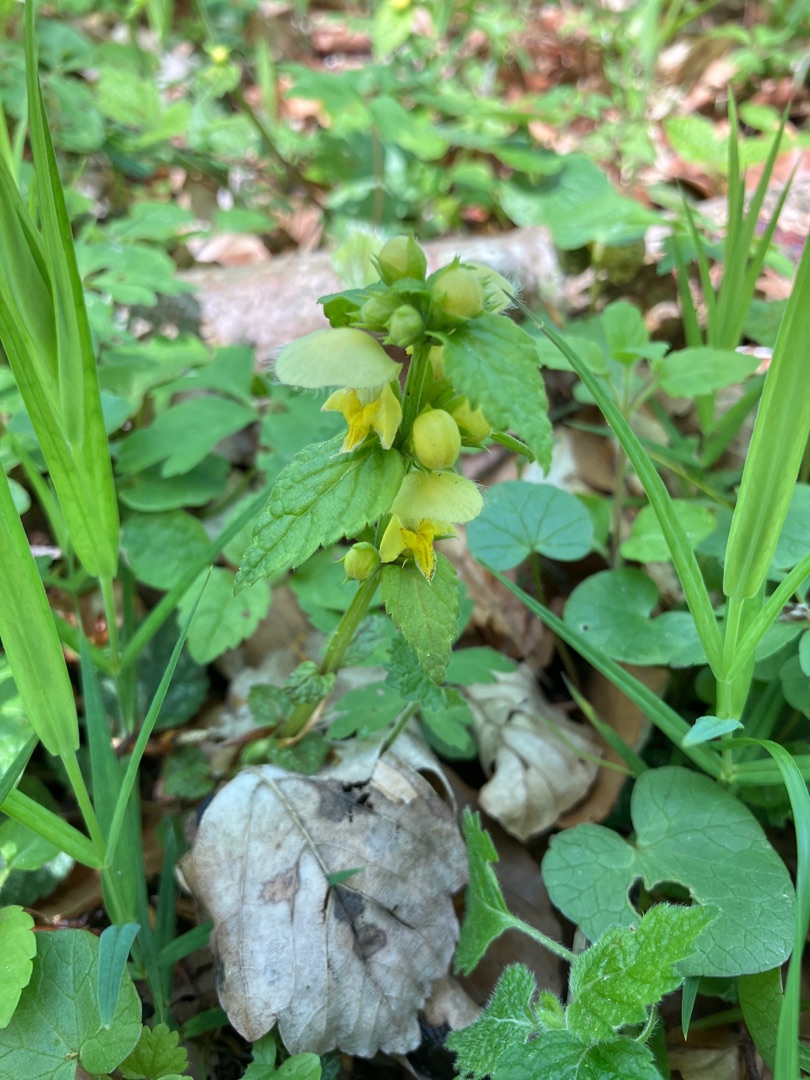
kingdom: Plantae
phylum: Tracheophyta
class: Magnoliopsida
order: Lamiales
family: Lamiaceae
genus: Lamium
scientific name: Lamium galeobdolon
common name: Almindelig guldnælde
